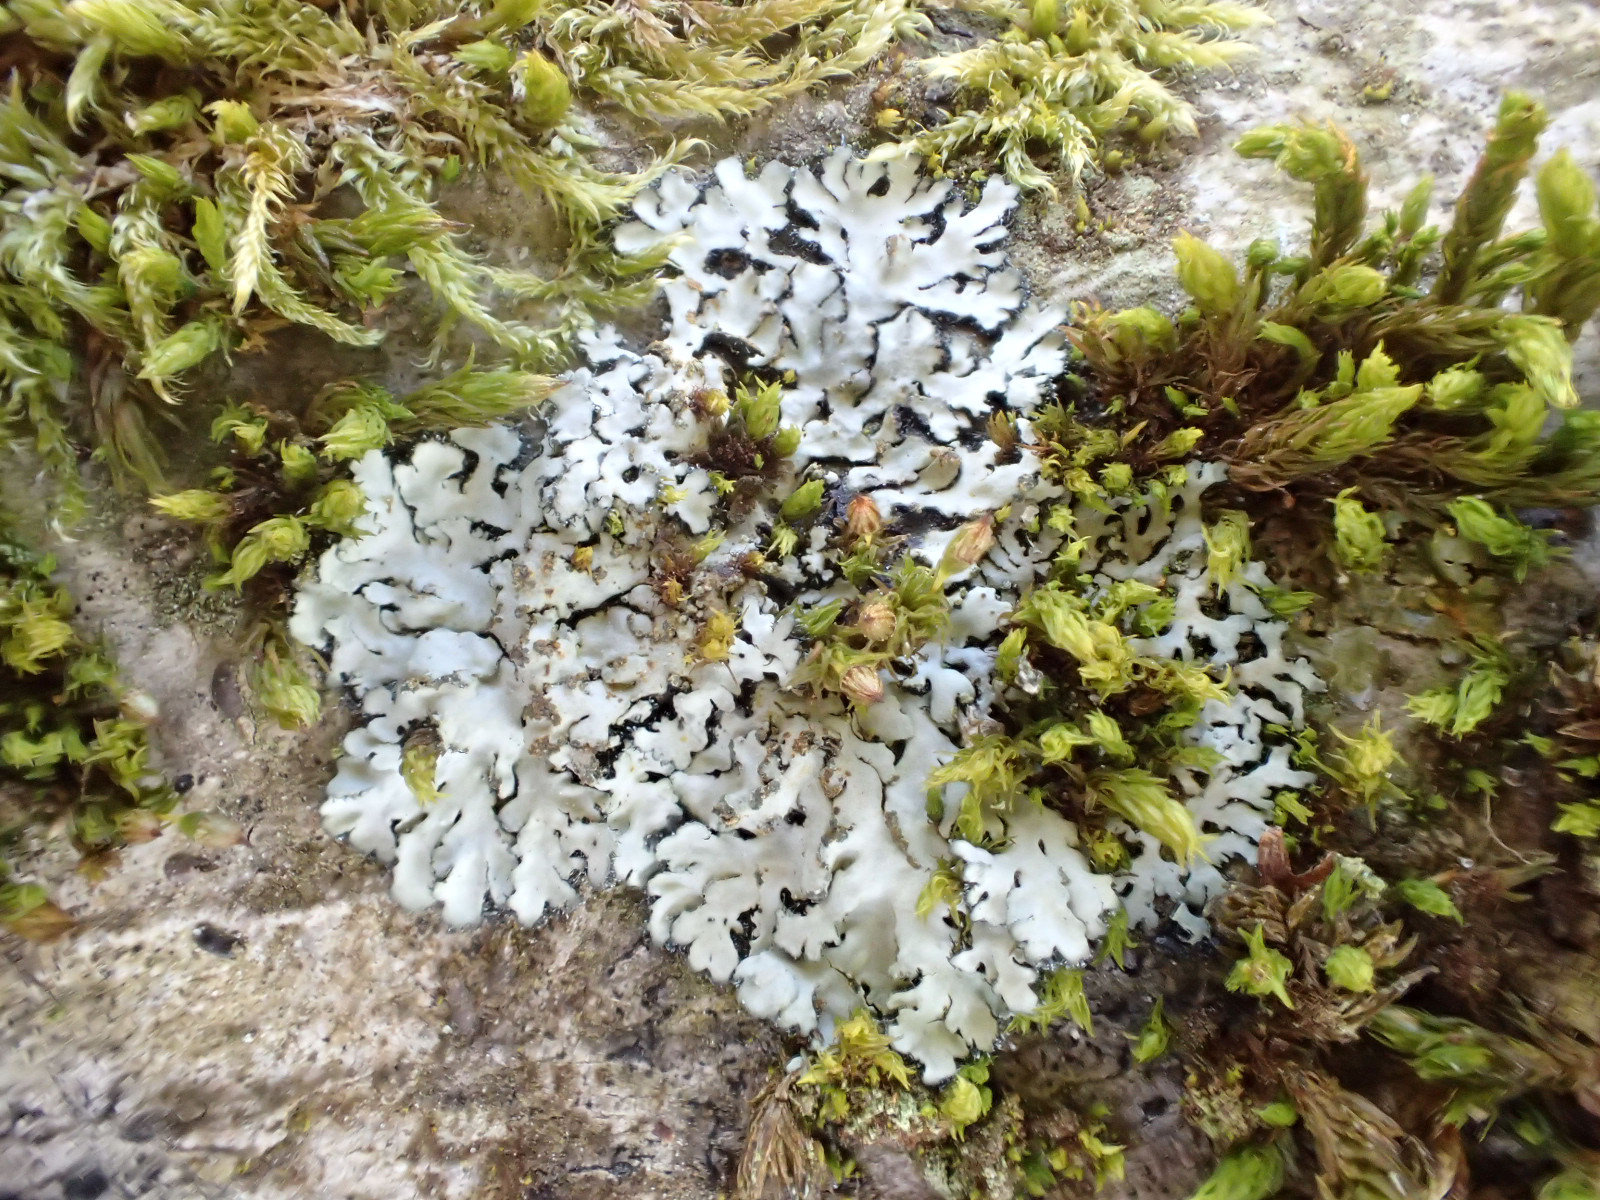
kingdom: Fungi
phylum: Ascomycota
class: Lecanoromycetes
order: Caliciales
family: Physciaceae
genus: Phaeophyscia
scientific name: Phaeophyscia orbicularis
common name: grågrøn rosetlav
